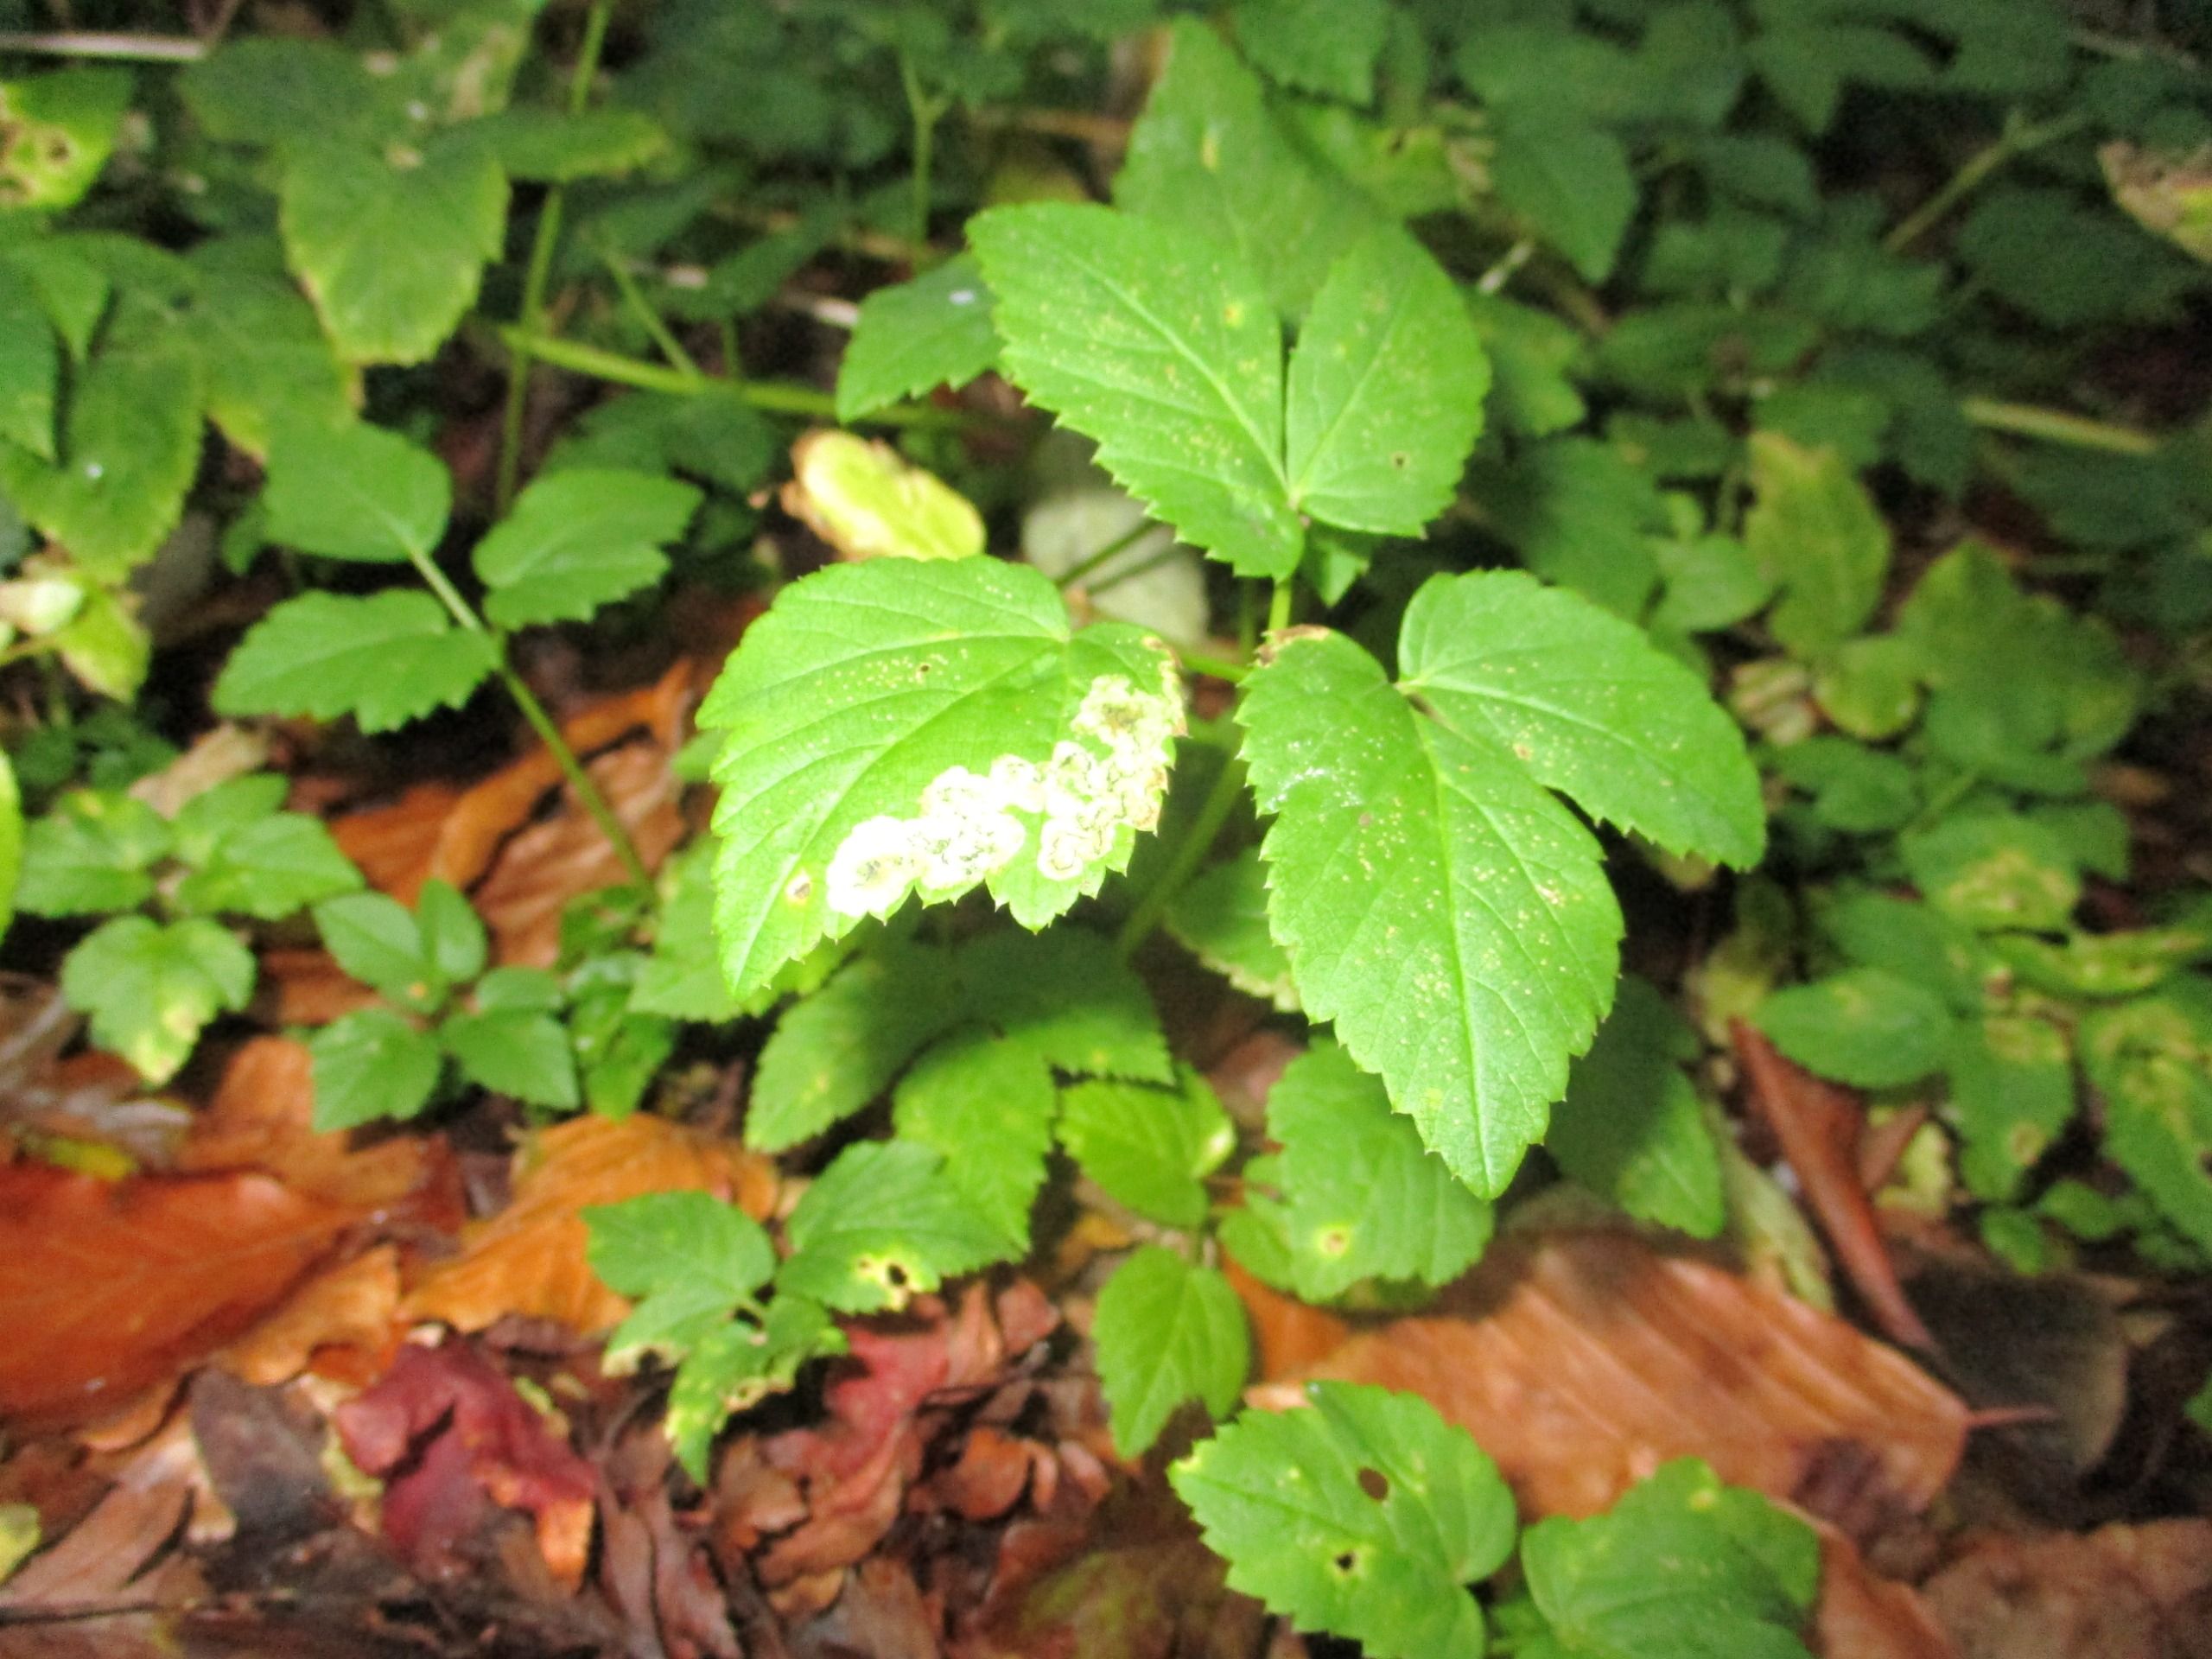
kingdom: Plantae
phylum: Tracheophyta
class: Magnoliopsida
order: Apiales
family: Apiaceae
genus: Aegopodium
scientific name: Aegopodium podagraria
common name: Skvalderkål
